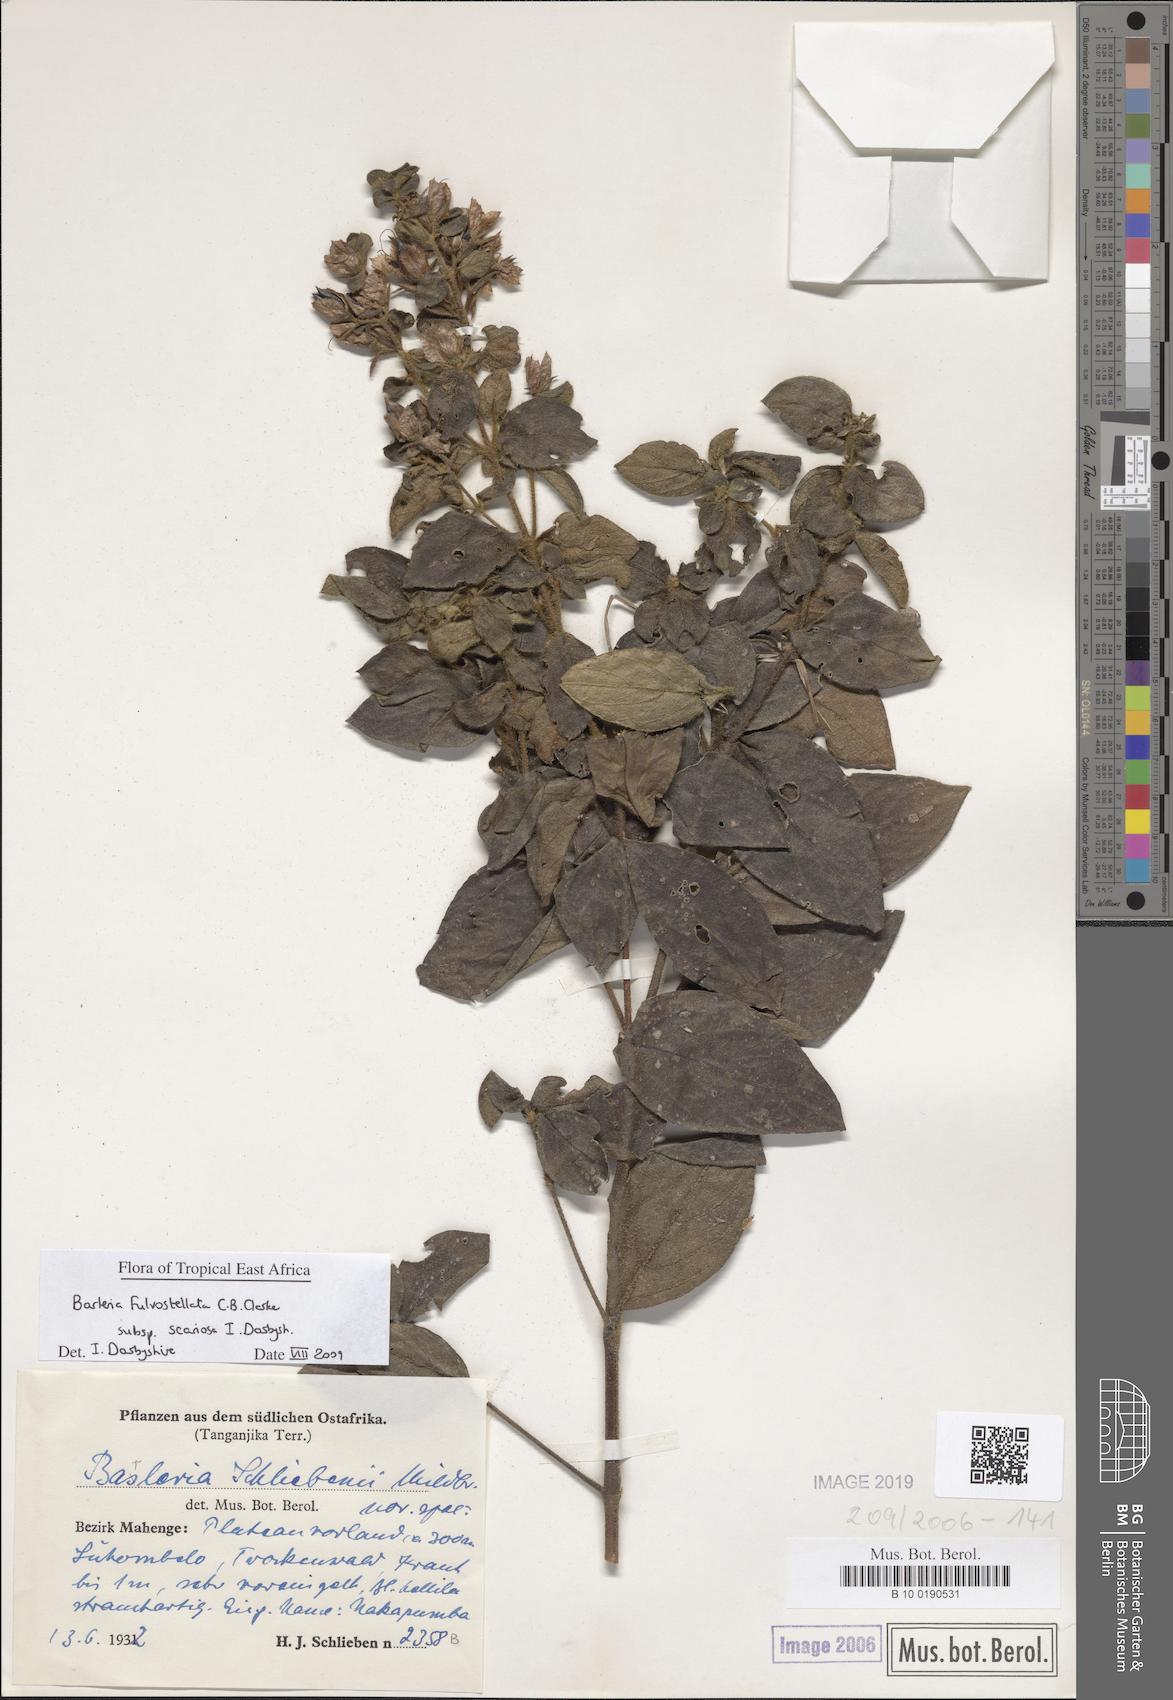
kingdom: Plantae
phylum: Tracheophyta
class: Magnoliopsida
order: Lamiales
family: Acanthaceae
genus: Barleria
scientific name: Barleria mutabilis
